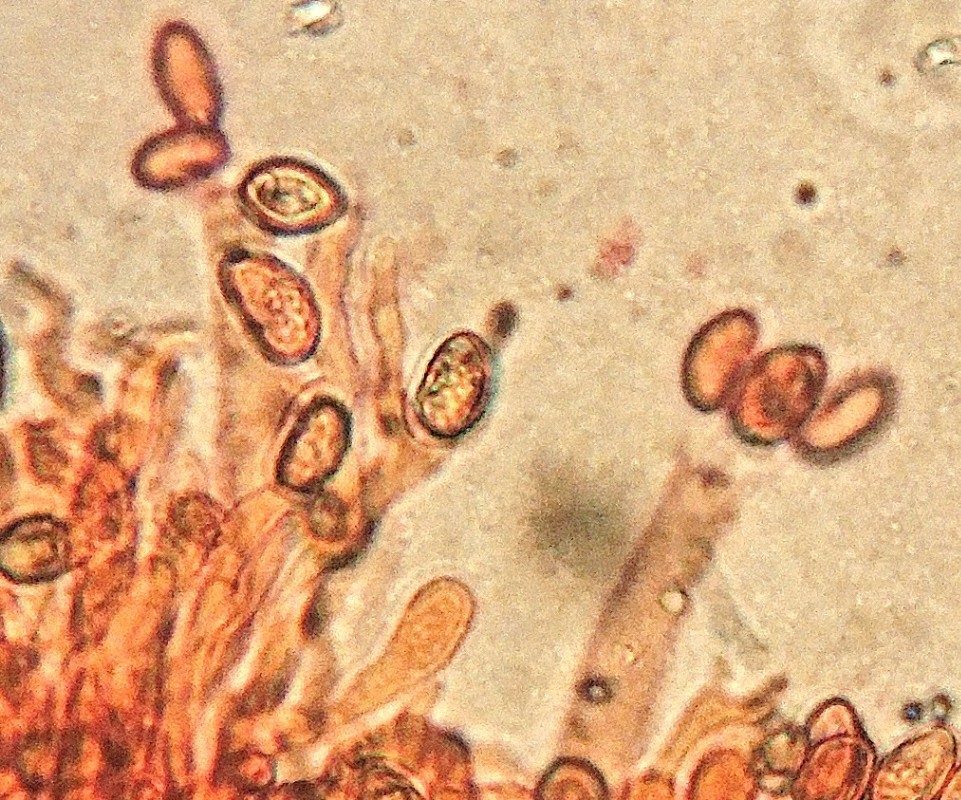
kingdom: Fungi
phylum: Basidiomycota
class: Agaricomycetes
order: Boletales
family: Coniophoraceae
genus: Coniophora
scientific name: Coniophora puteana
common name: gul tømmersvamp
